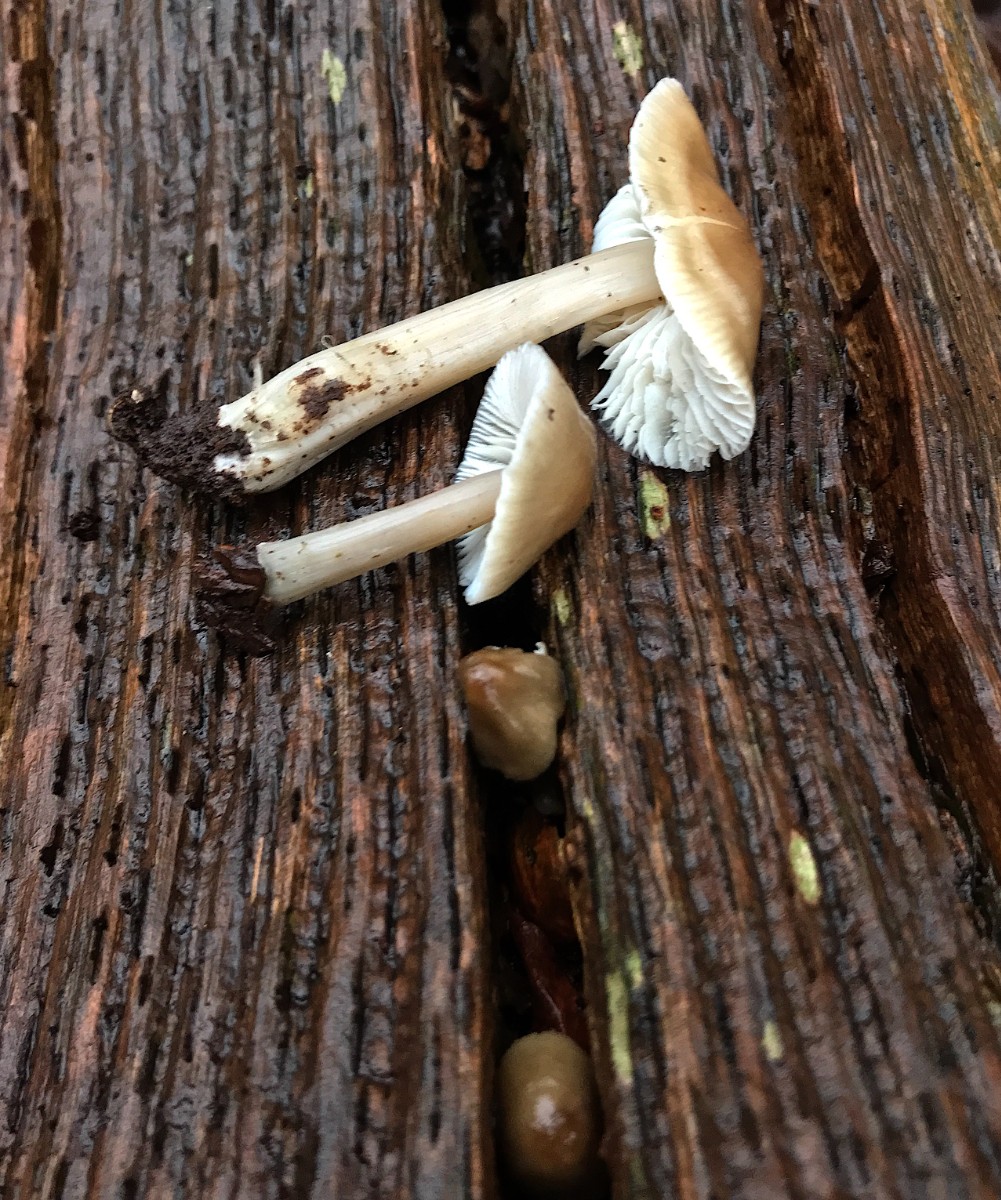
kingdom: Fungi
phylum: Basidiomycota
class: Agaricomycetes
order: Agaricales
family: Mycenaceae
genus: Mycena
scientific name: Mycena galericulata
